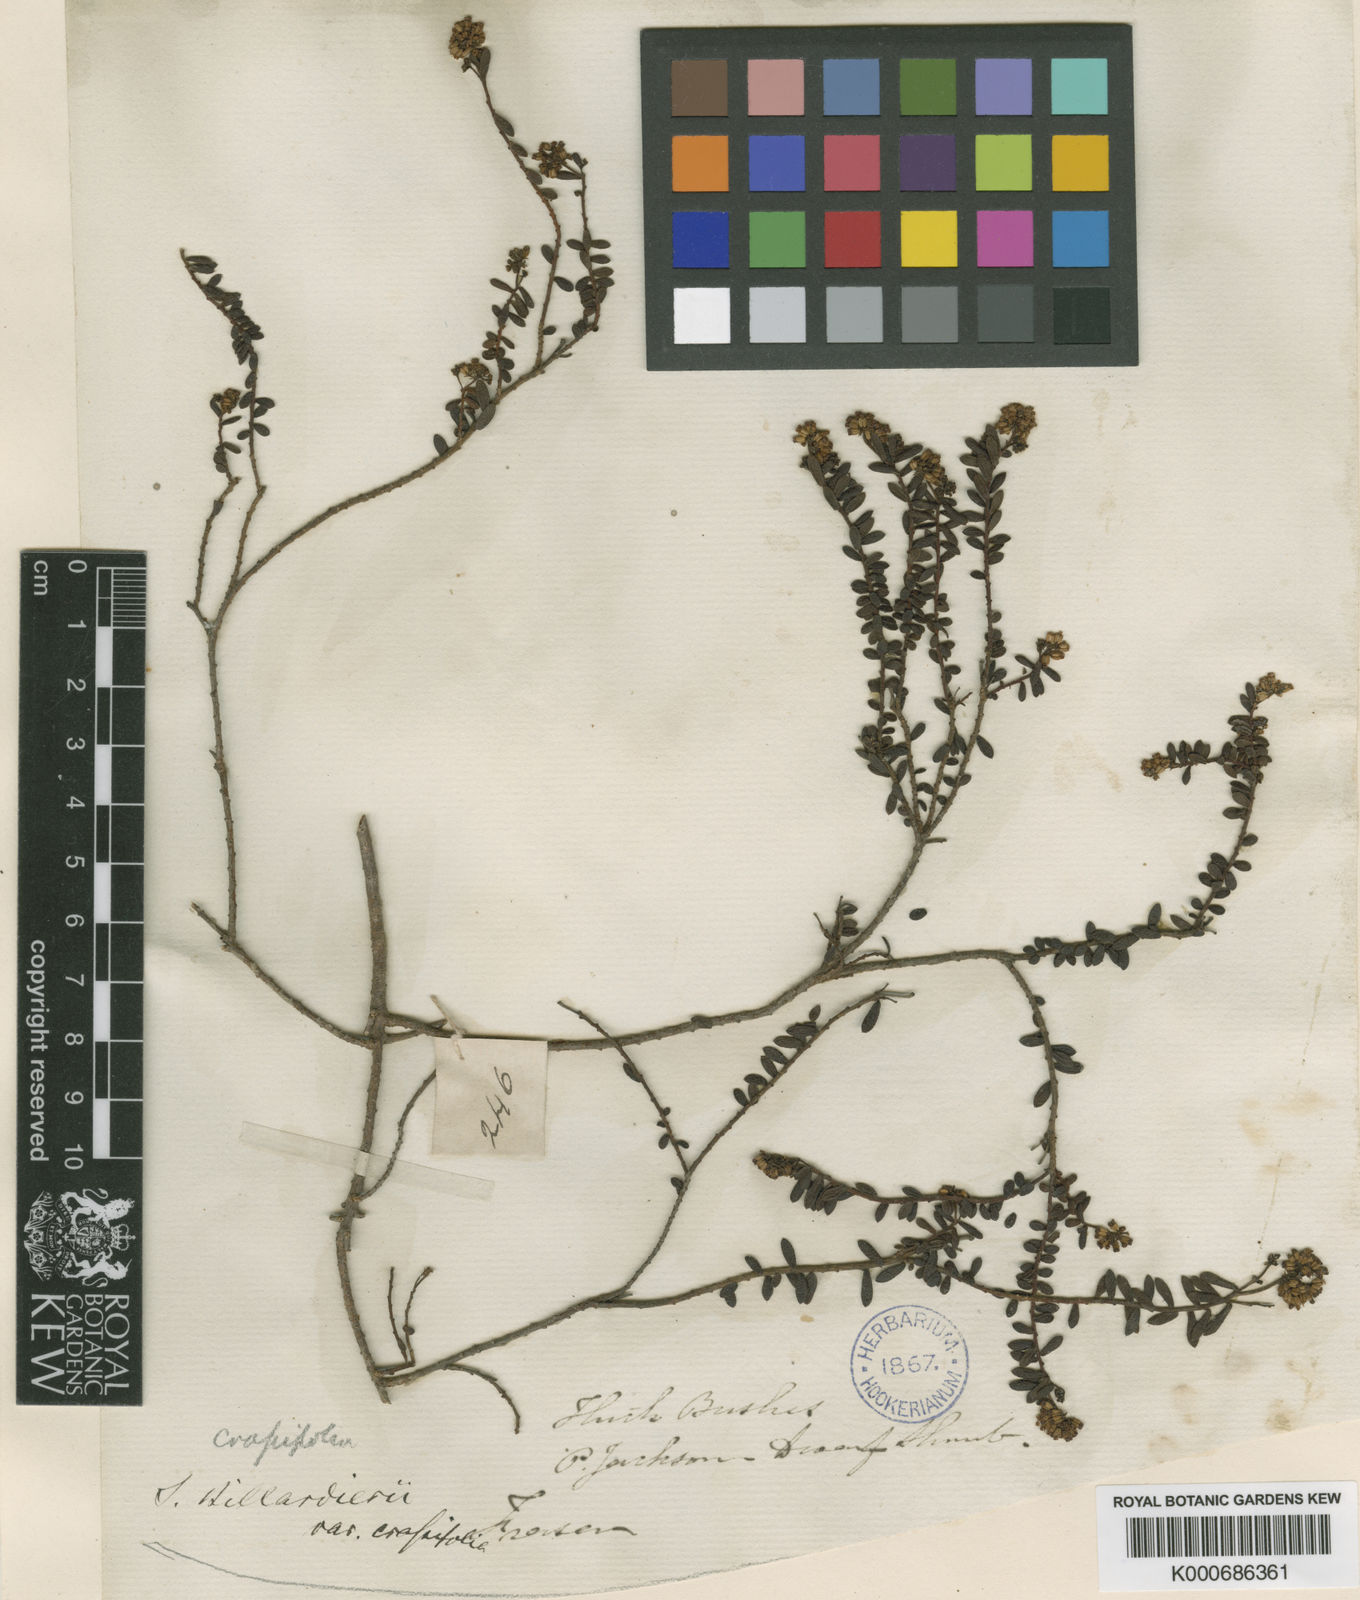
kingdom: Plantae
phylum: Tracheophyta
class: Magnoliopsida
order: Apiales
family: Apiaceae
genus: Platysace
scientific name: Platysace lanceolata
